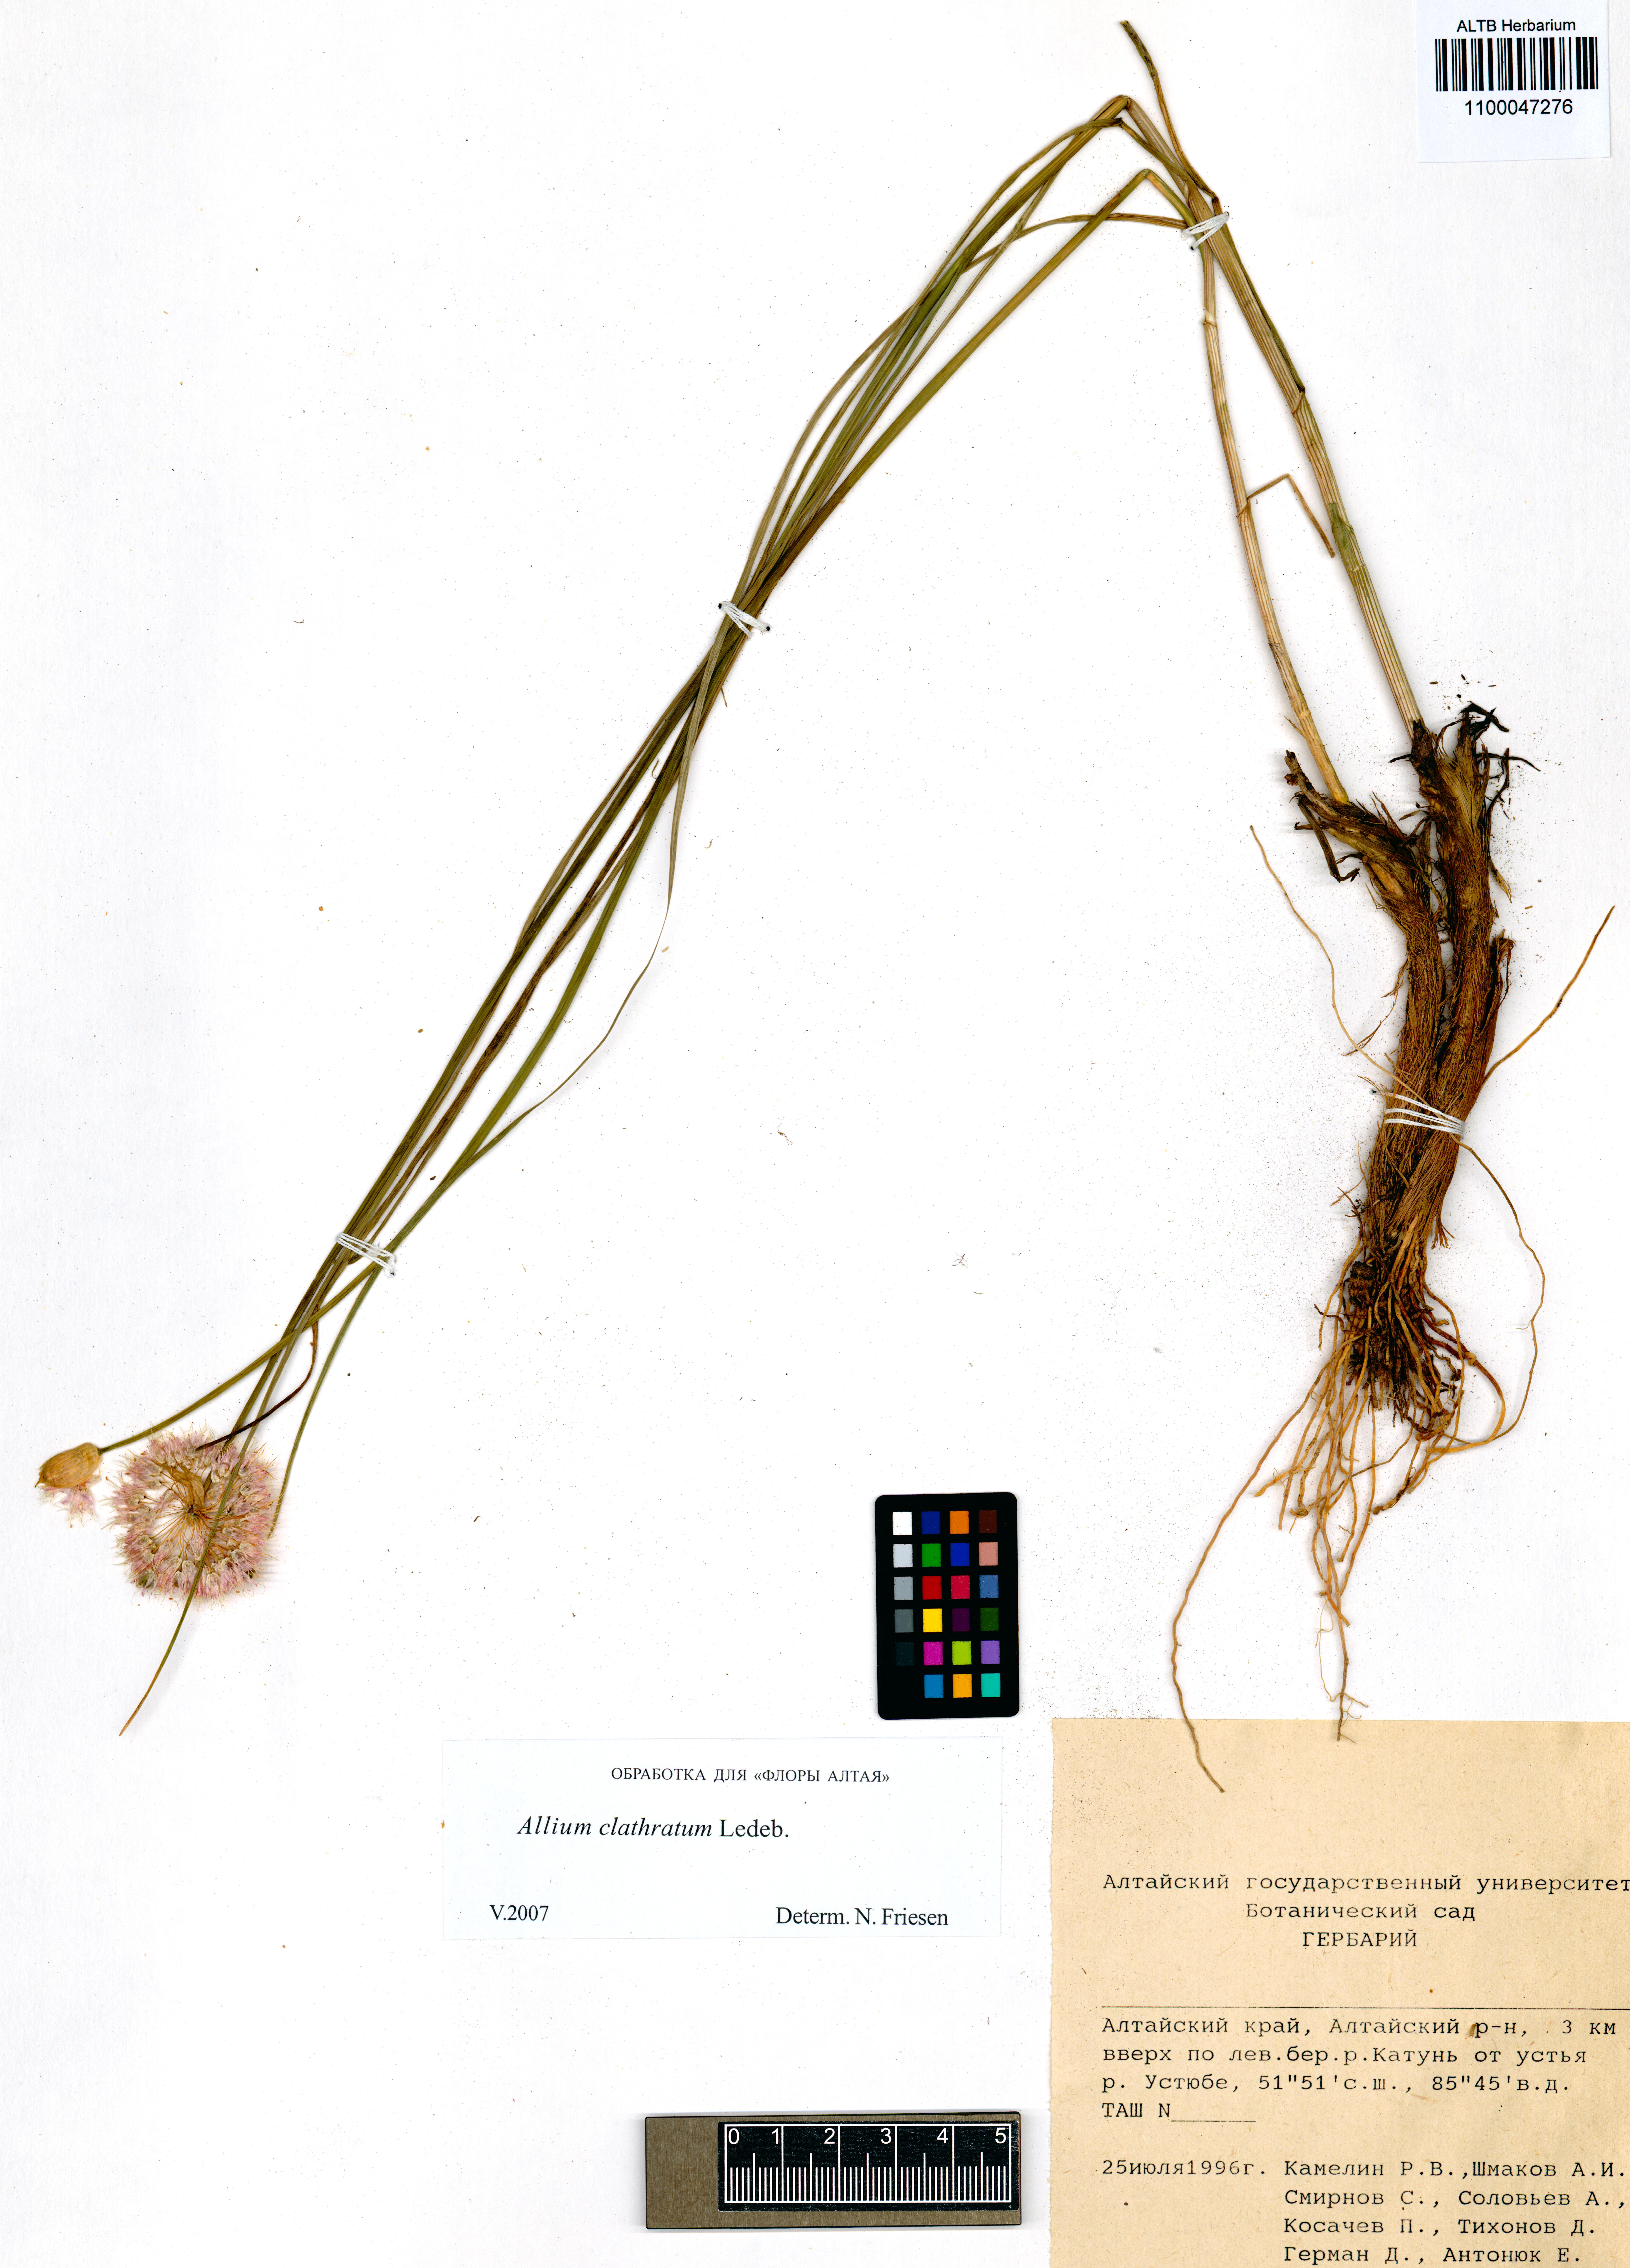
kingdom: Plantae
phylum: Tracheophyta
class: Liliopsida
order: Asparagales
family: Amaryllidaceae
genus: Allium
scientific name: Allium clathratum
